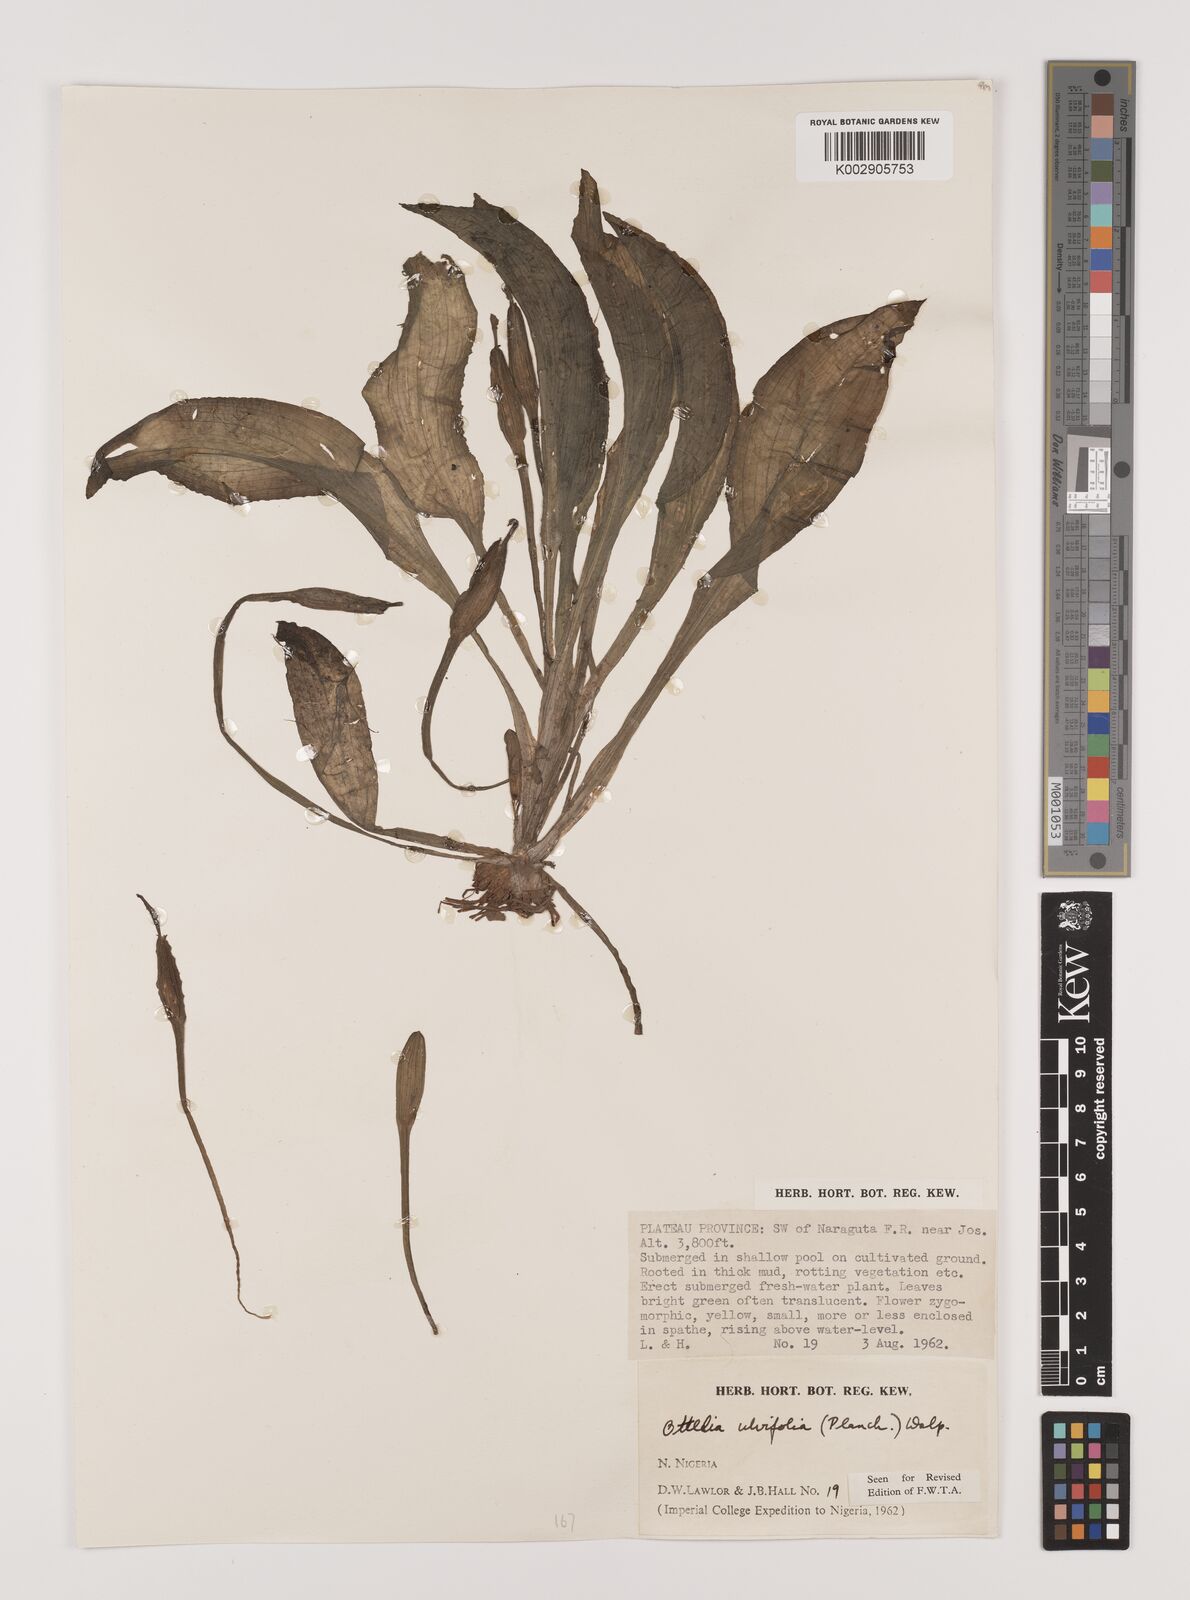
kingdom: Plantae
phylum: Tracheophyta
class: Liliopsida
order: Alismatales
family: Hydrocharitaceae
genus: Ottelia
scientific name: Ottelia ulvifolia
